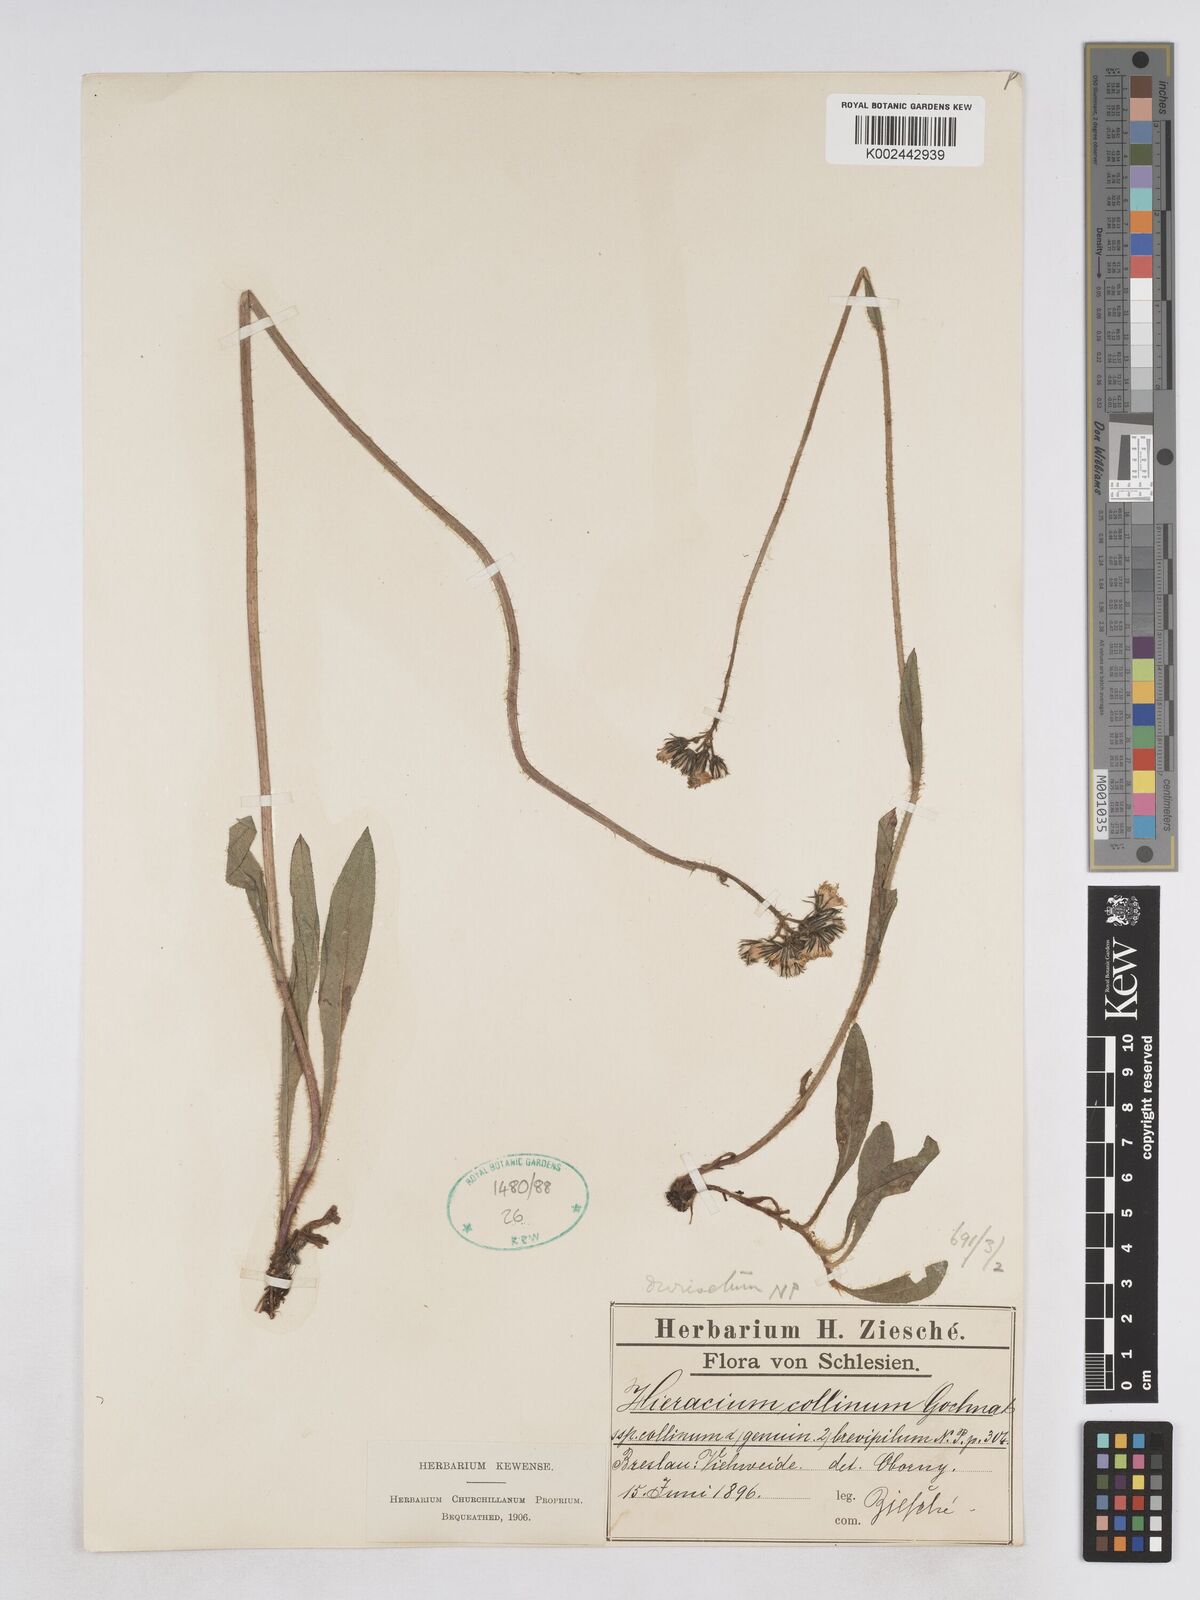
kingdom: Plantae
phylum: Tracheophyta
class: Magnoliopsida
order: Asterales
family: Asteraceae
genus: Pilosella
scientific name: Pilosella cymosiformis
